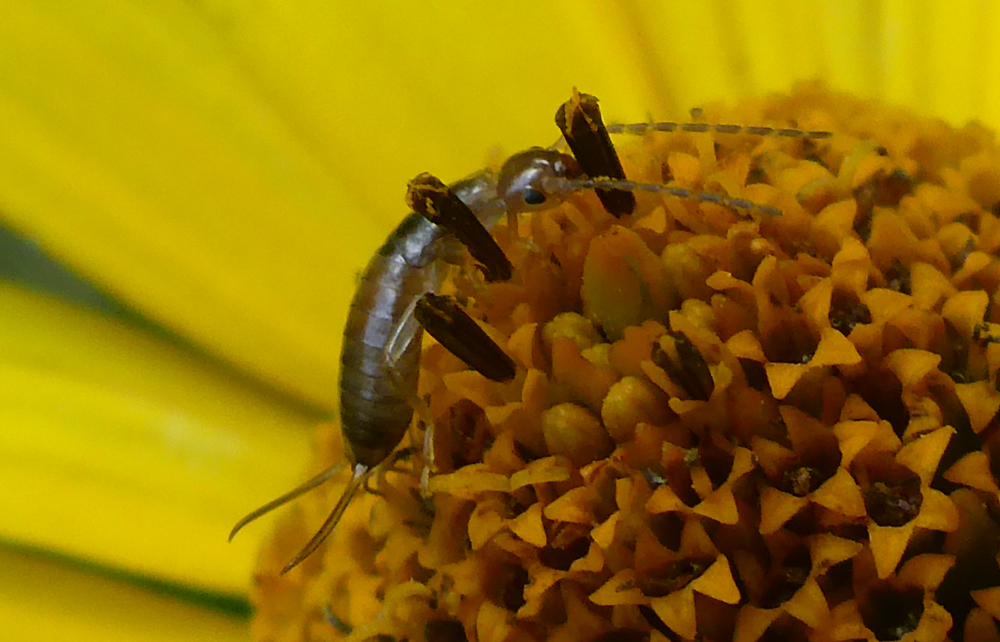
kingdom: Animalia
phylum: Arthropoda
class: Insecta
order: Dermaptera
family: Forficulidae
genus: Forficula
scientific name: Forficula auricularia
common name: European earwig
